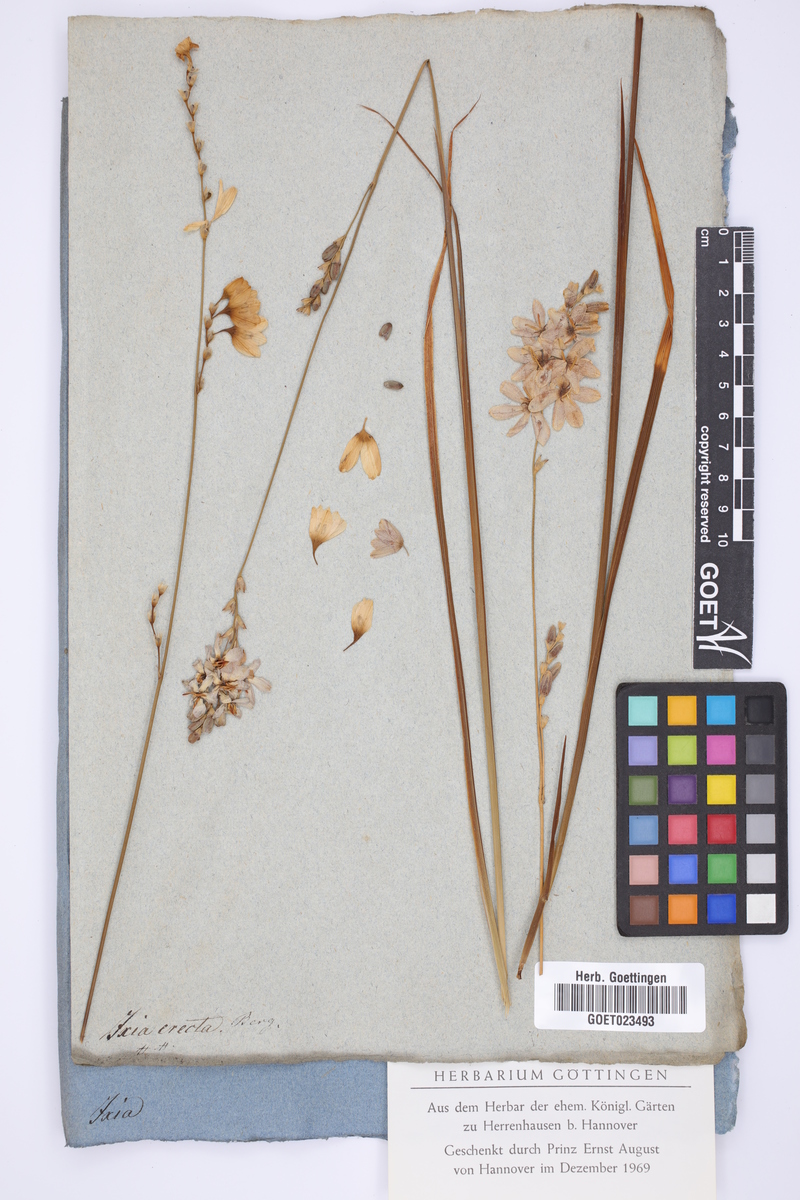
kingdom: Plantae
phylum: Tracheophyta
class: Liliopsida
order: Asparagales
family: Iridaceae
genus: Ixia
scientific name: Ixia polystachya
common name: White-and-yellow-flower cornlily
